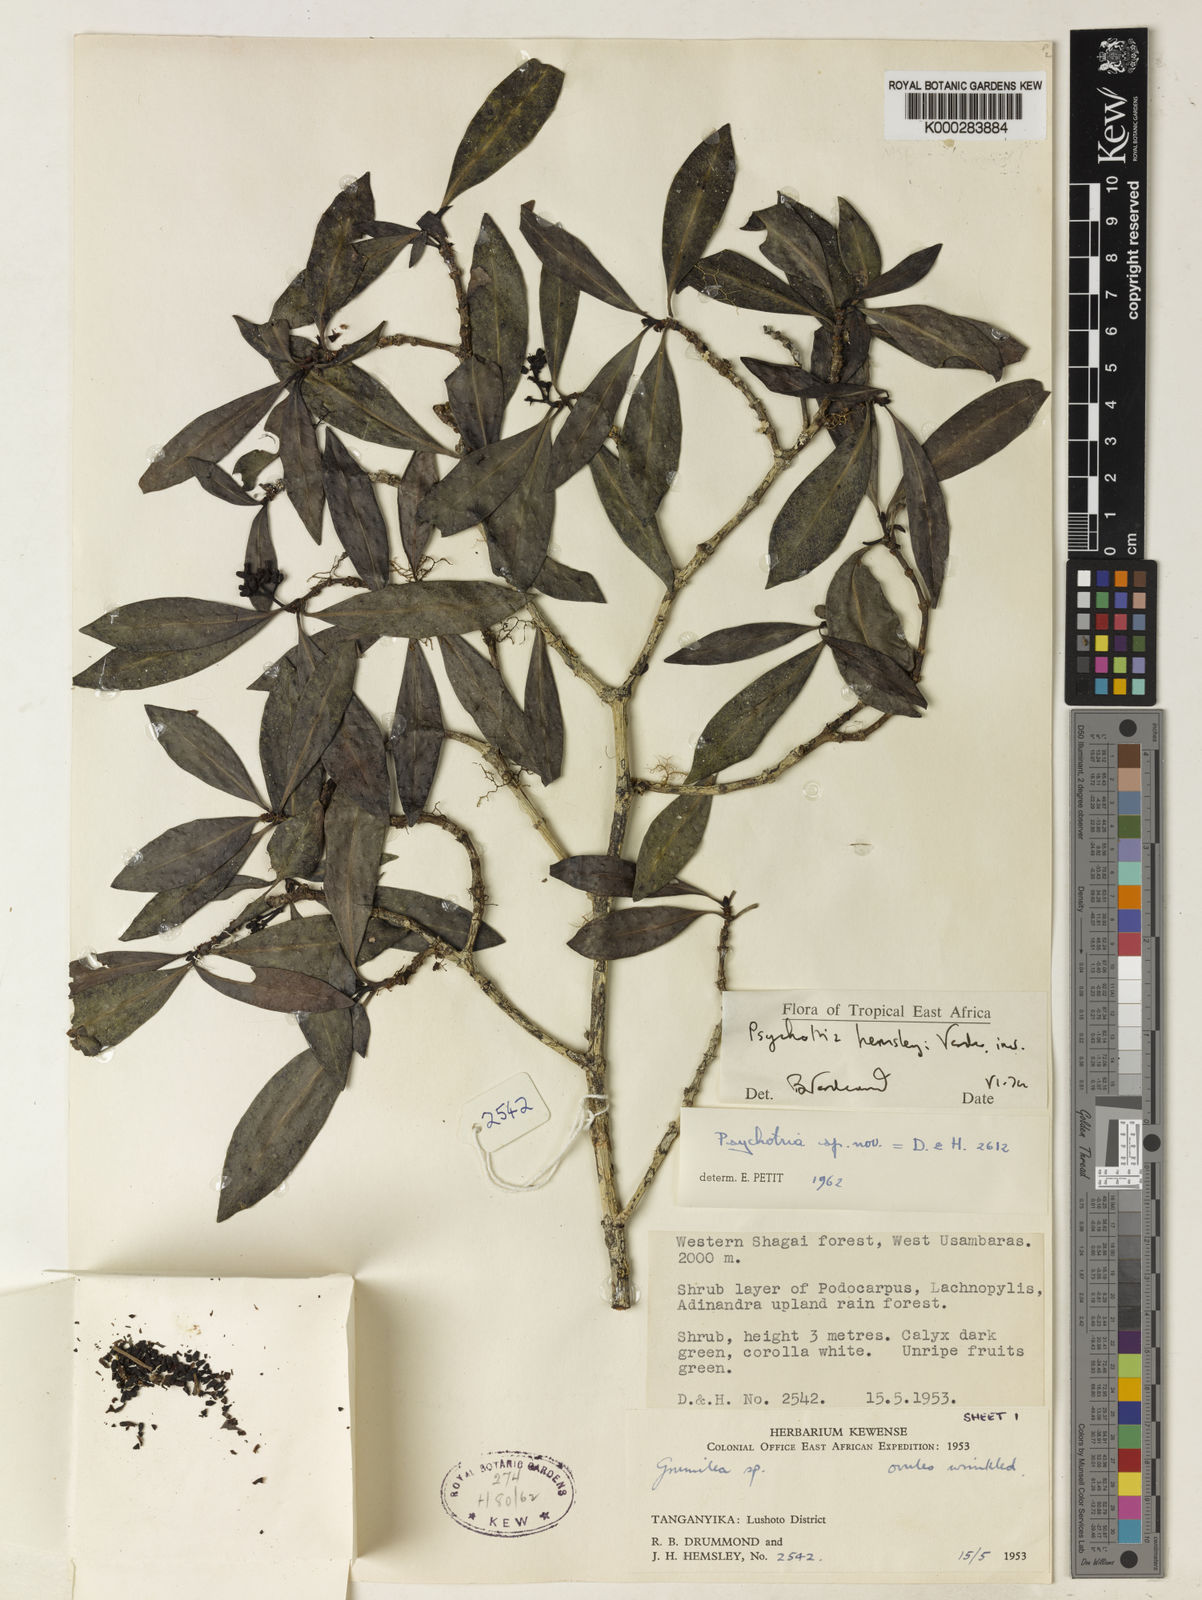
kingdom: Plantae
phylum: Tracheophyta
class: Magnoliopsida
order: Gentianales
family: Rubiaceae
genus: Psychotria
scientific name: Psychotria hemsleyi
